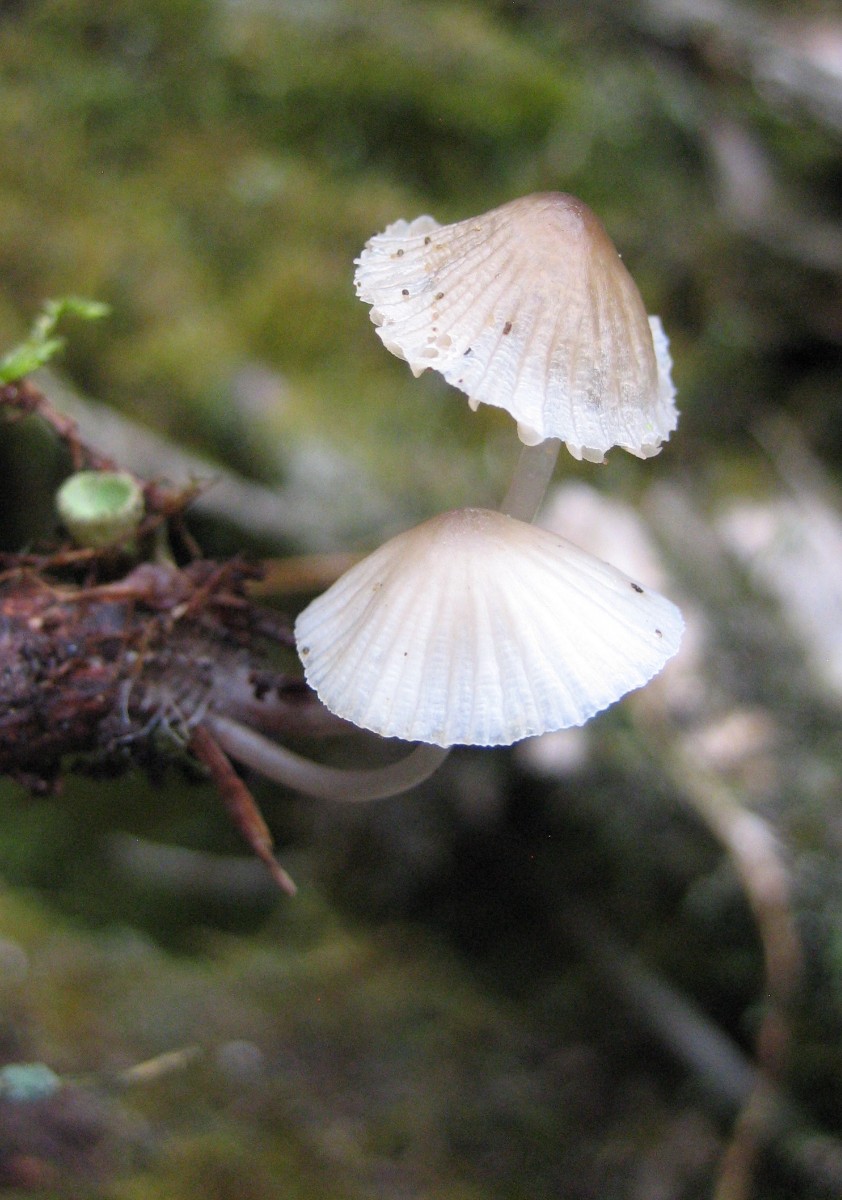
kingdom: Fungi
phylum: Basidiomycota
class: Agaricomycetes
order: Agaricales
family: Mycenaceae
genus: Mycena
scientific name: Mycena
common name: huesvamp
